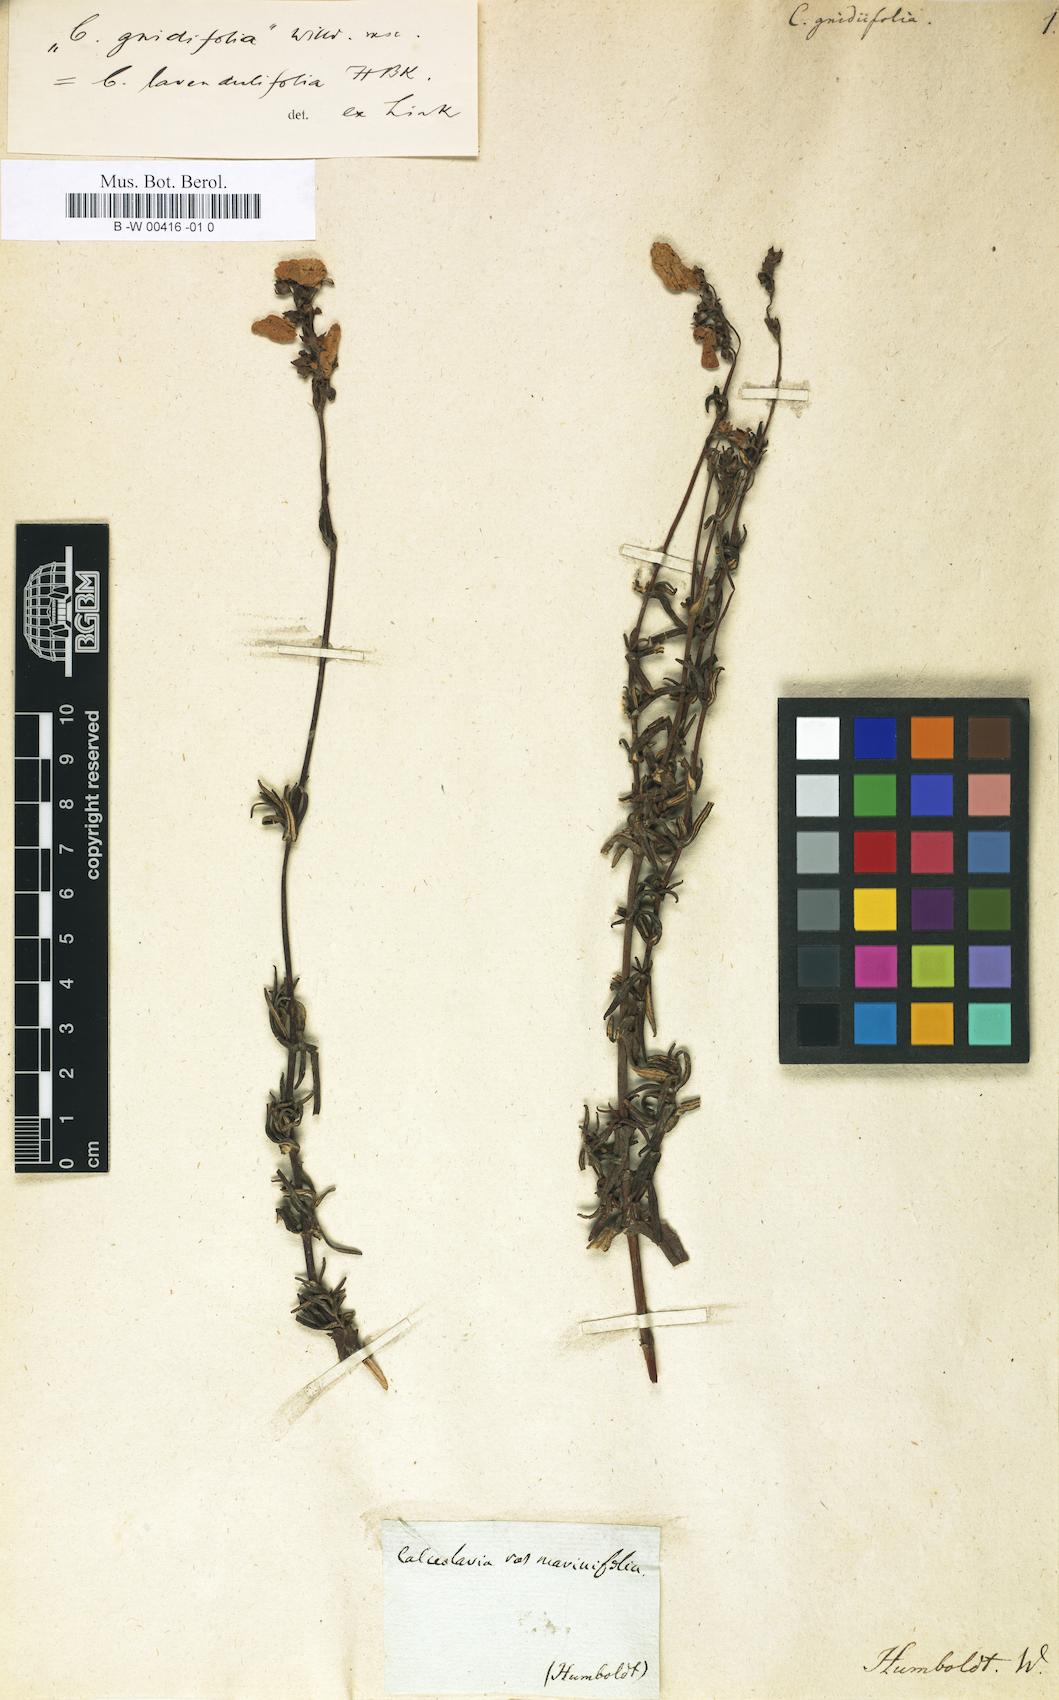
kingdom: Plantae
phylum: Tracheophyta
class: Magnoliopsida
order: Lamiales
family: Calceolariaceae
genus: Calceolaria
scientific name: Calceolaria lavandulifolia
